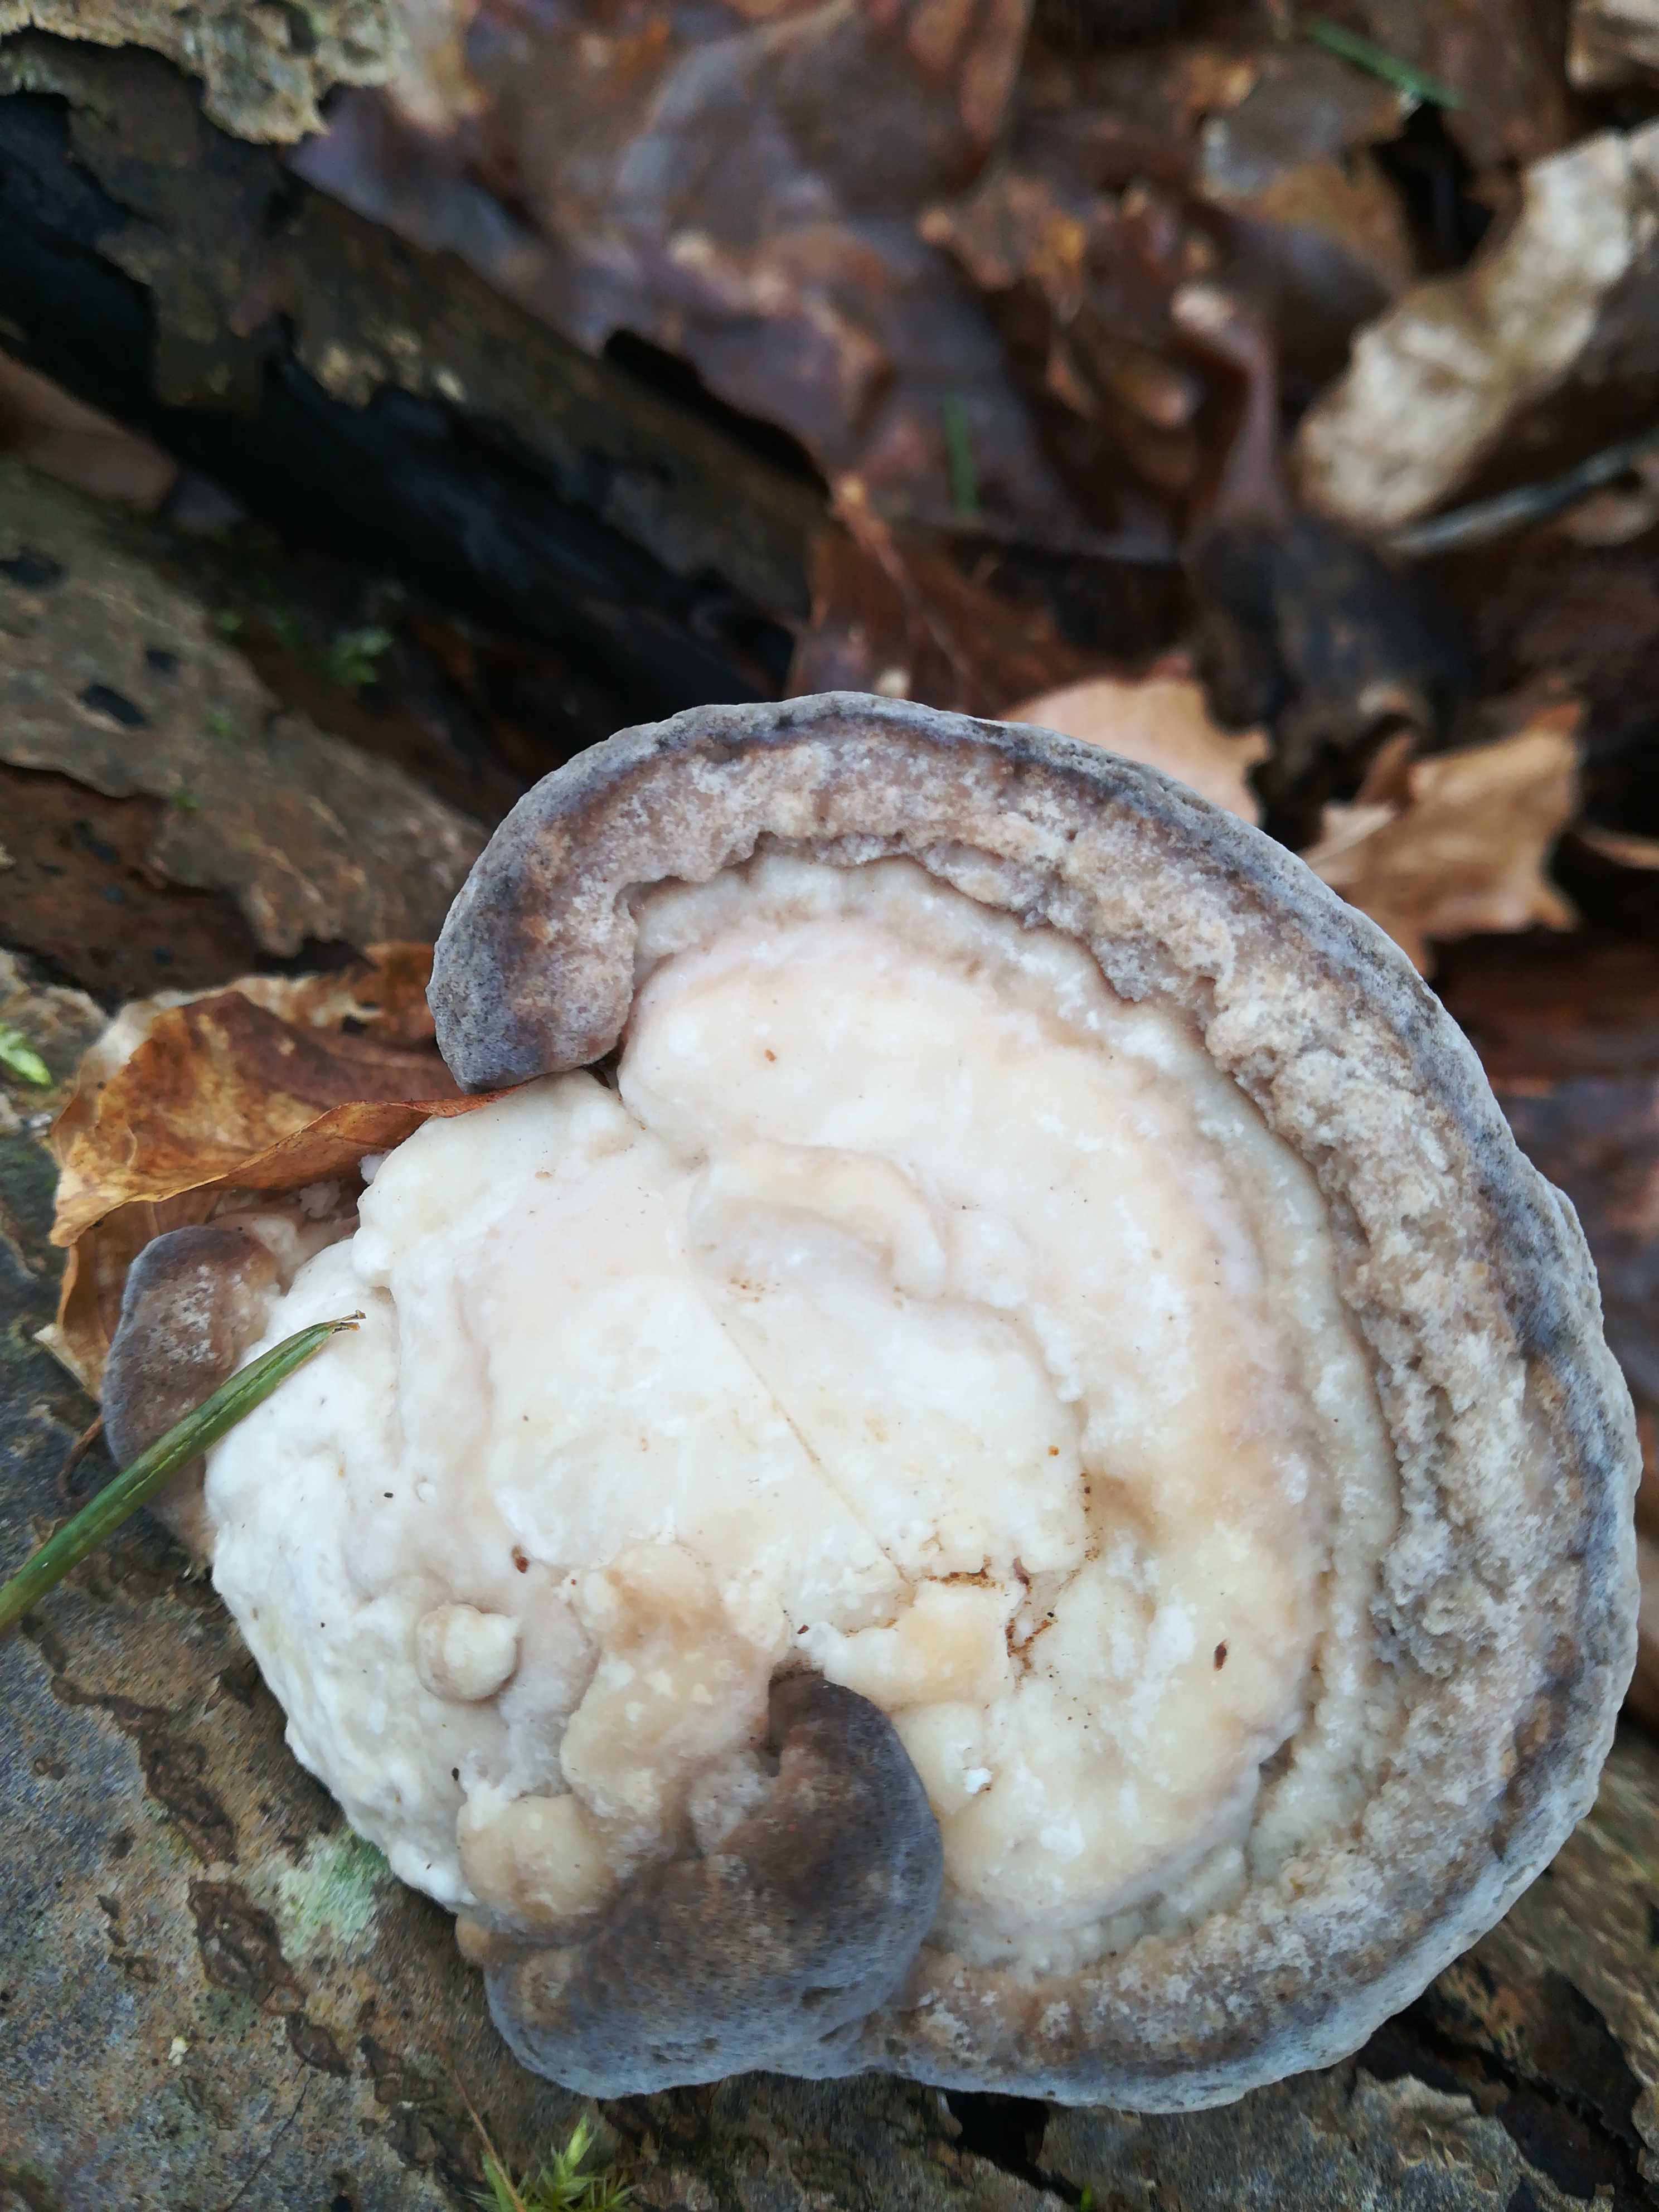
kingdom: Fungi
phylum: Basidiomycota
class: Agaricomycetes
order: Polyporales
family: Polyporaceae
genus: Trametes
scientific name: Trametes gibbosa
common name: puklet læderporesvamp
